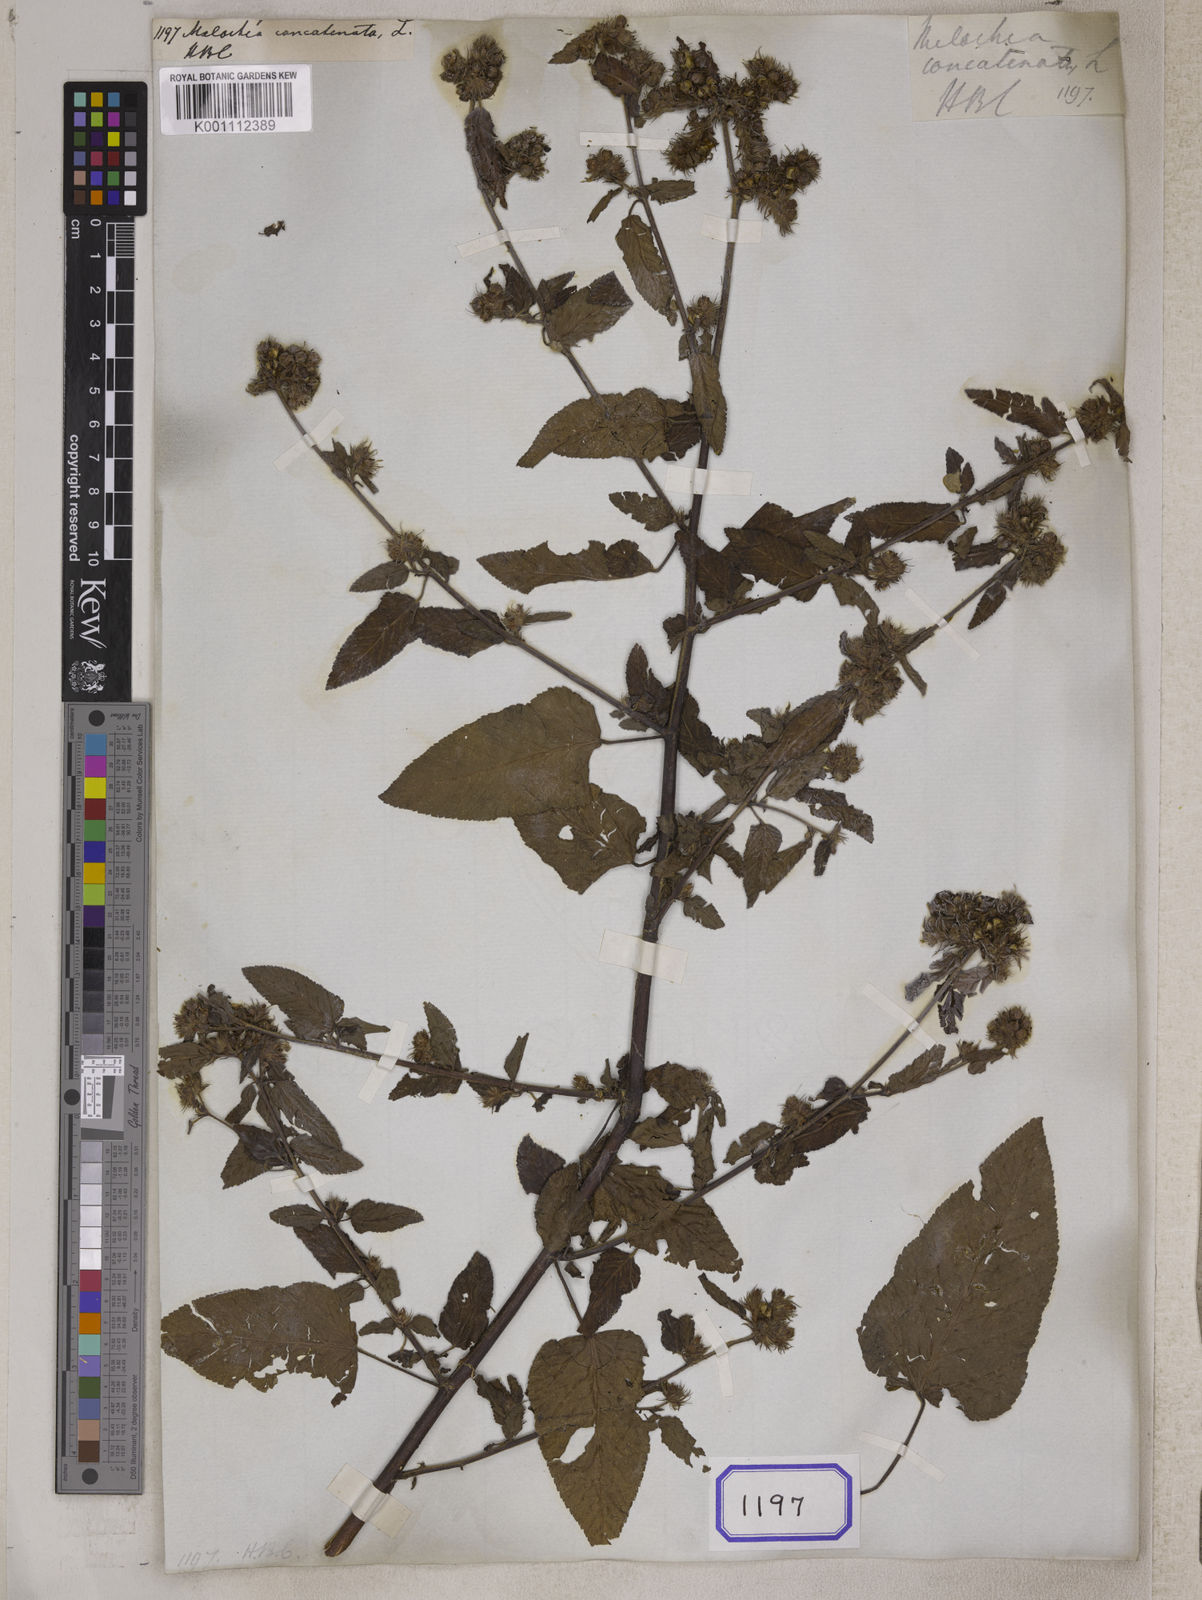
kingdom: Plantae
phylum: Tracheophyta
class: Magnoliopsida
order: Malvales
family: Malvaceae
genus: Melochia
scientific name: Melochia corchorifolia
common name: Chocolateweed
